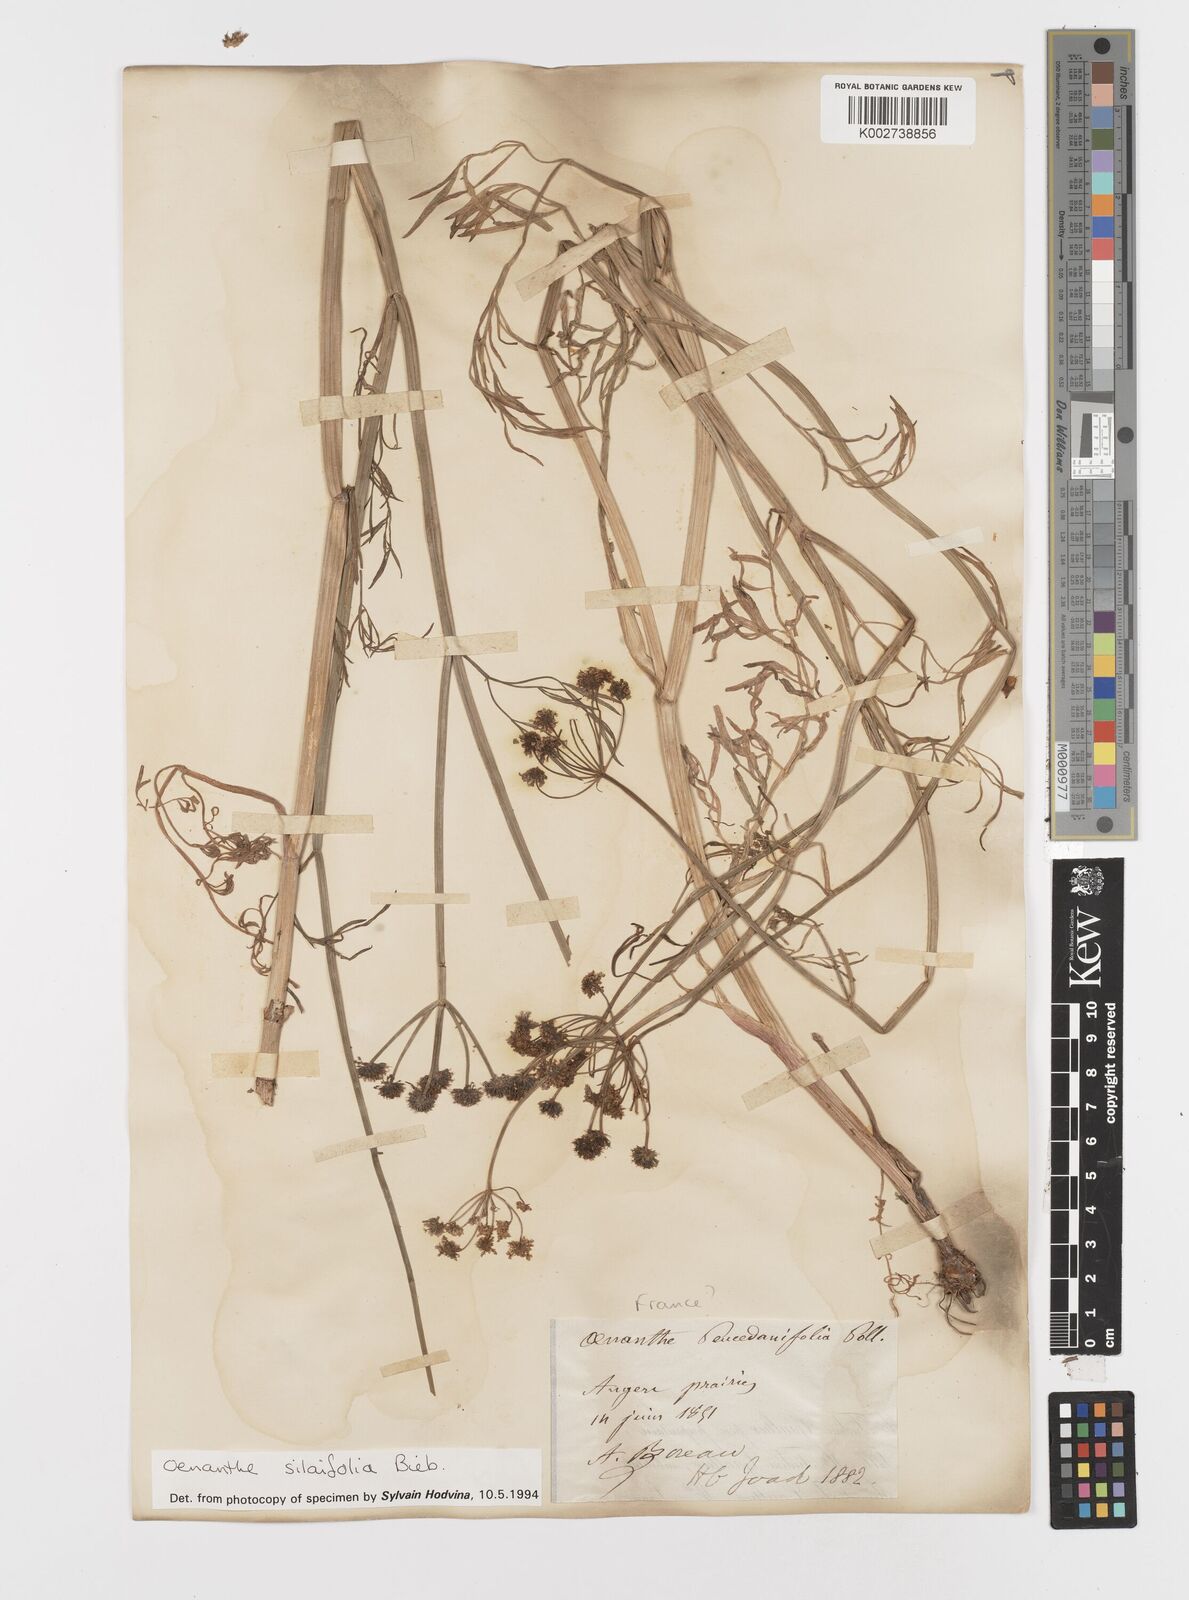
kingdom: Plantae
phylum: Tracheophyta
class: Magnoliopsida
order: Apiales
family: Apiaceae
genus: Oenanthe
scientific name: Oenanthe silaifolia
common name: Narrow-leaved water-dropwort
